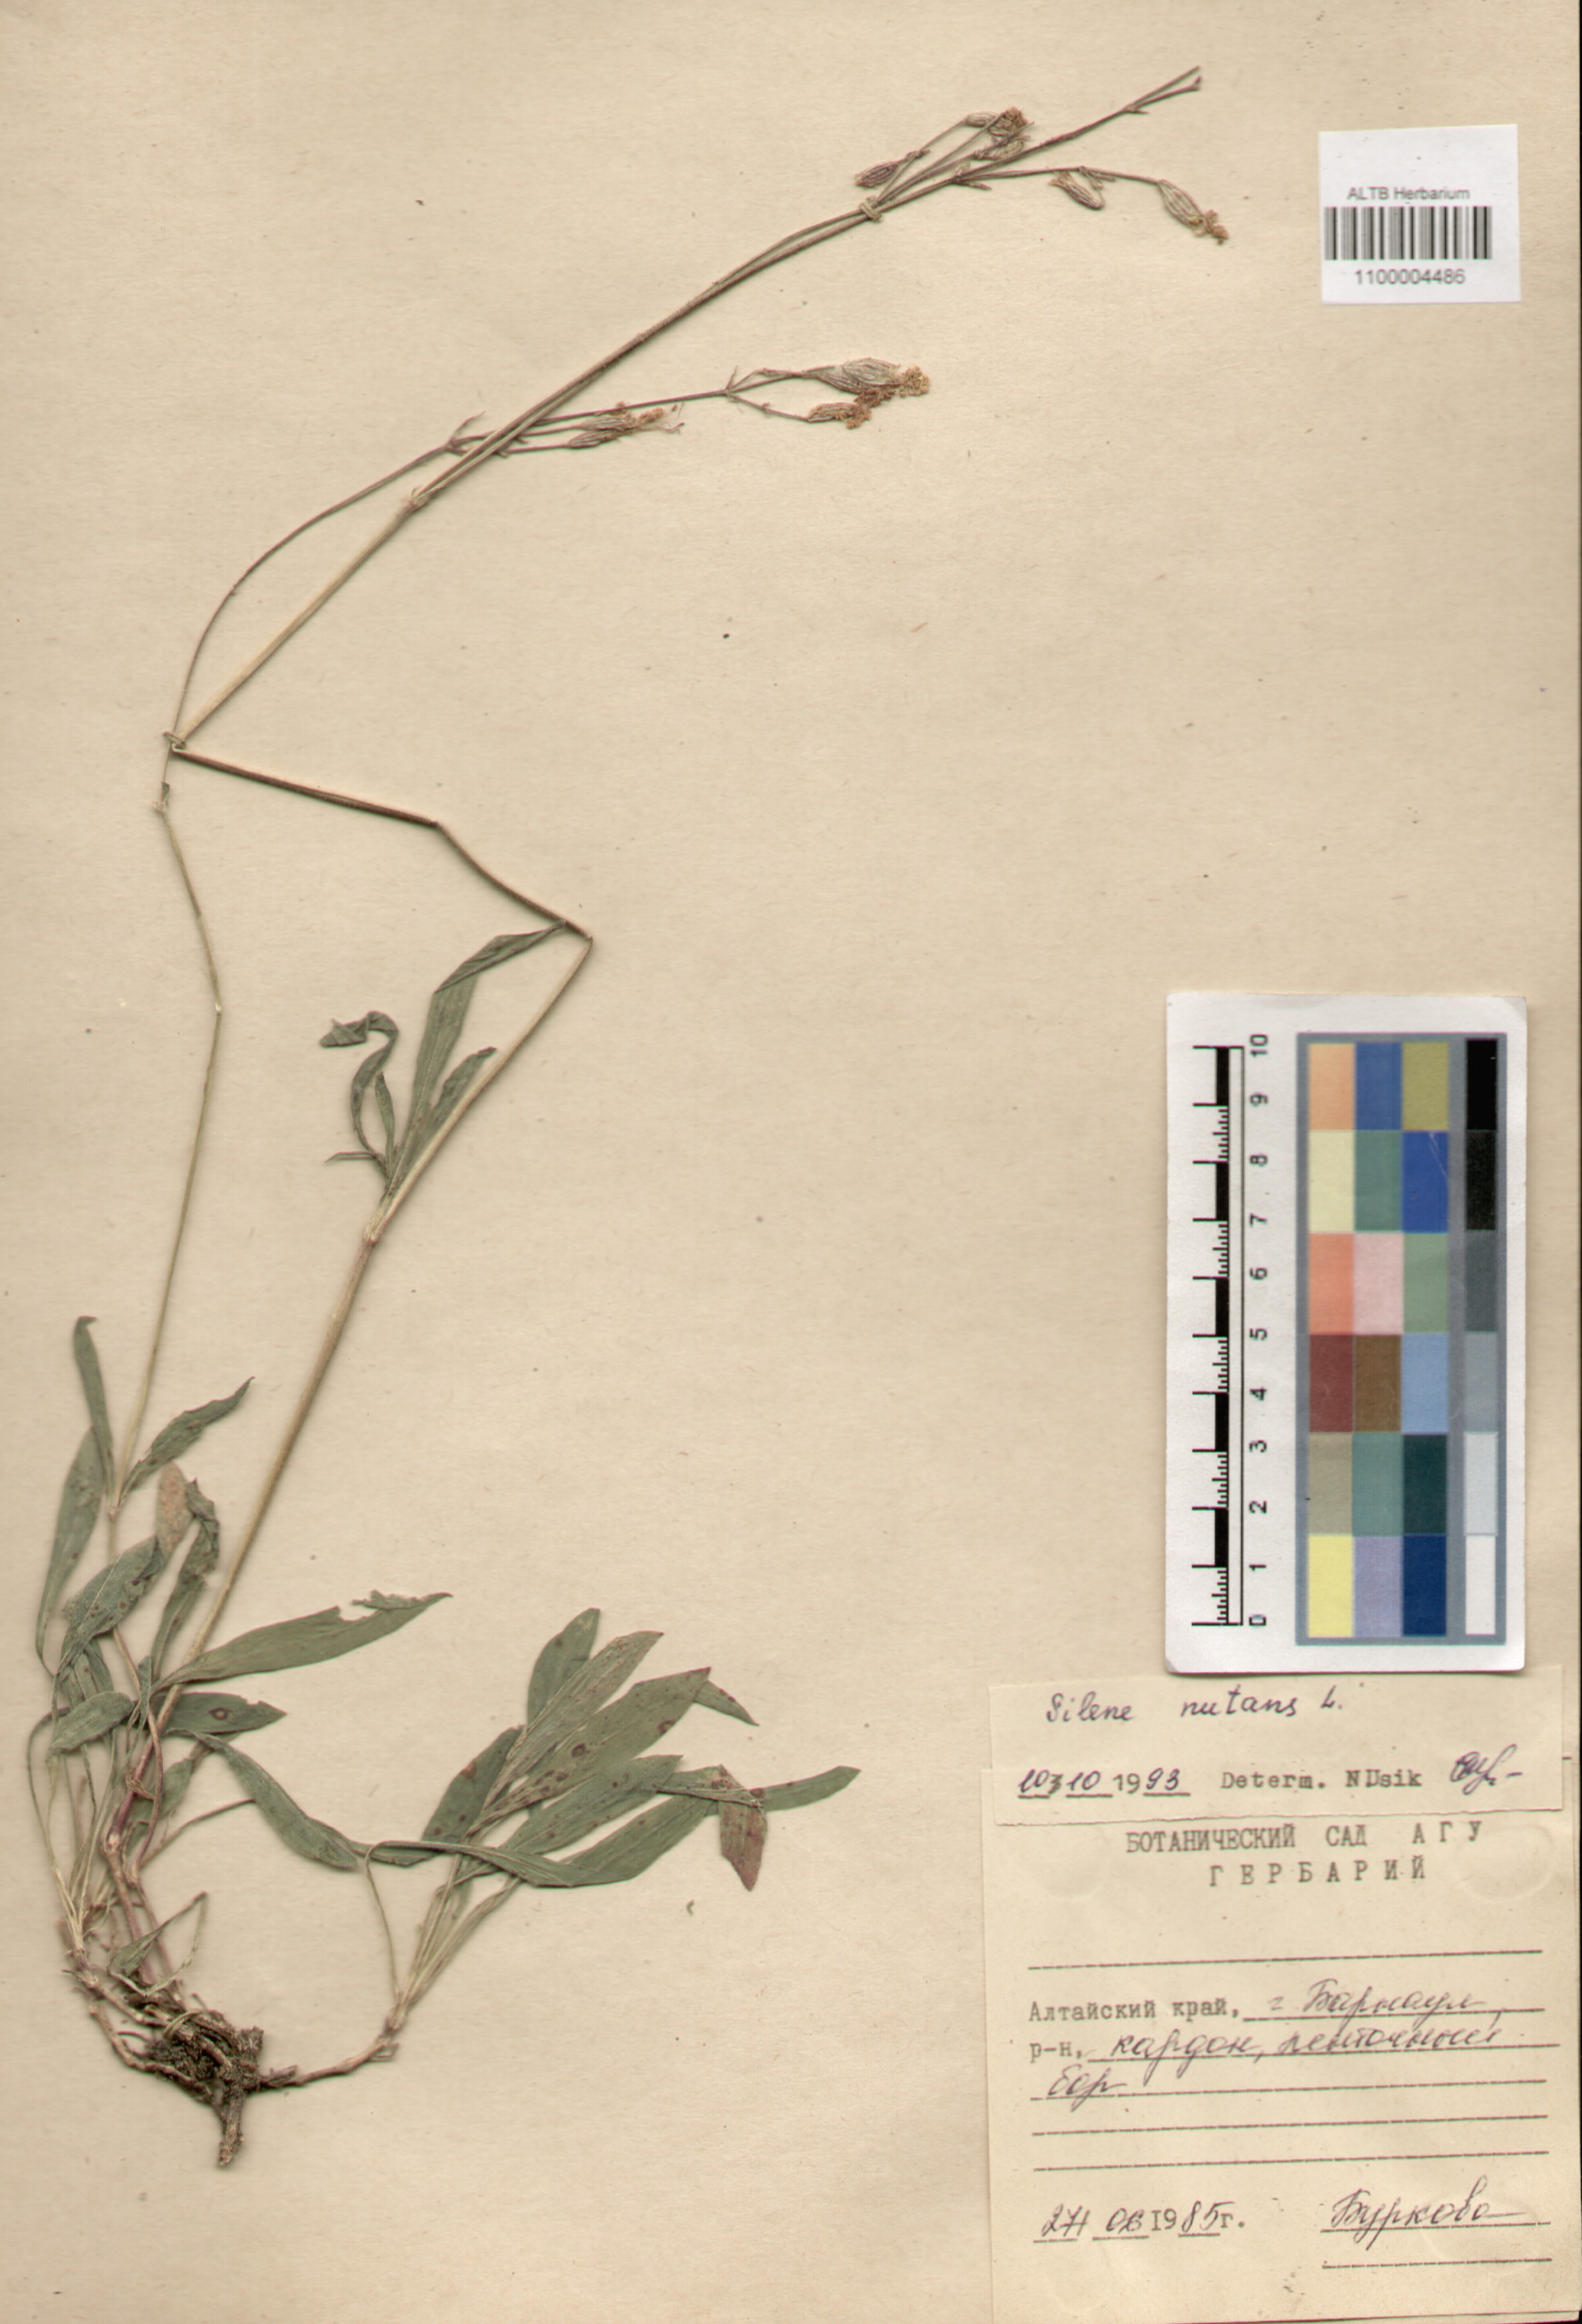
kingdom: Plantae
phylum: Tracheophyta
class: Magnoliopsida
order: Caryophyllales
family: Caryophyllaceae
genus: Silene
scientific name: Silene nutans
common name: Nottingham catchfly
